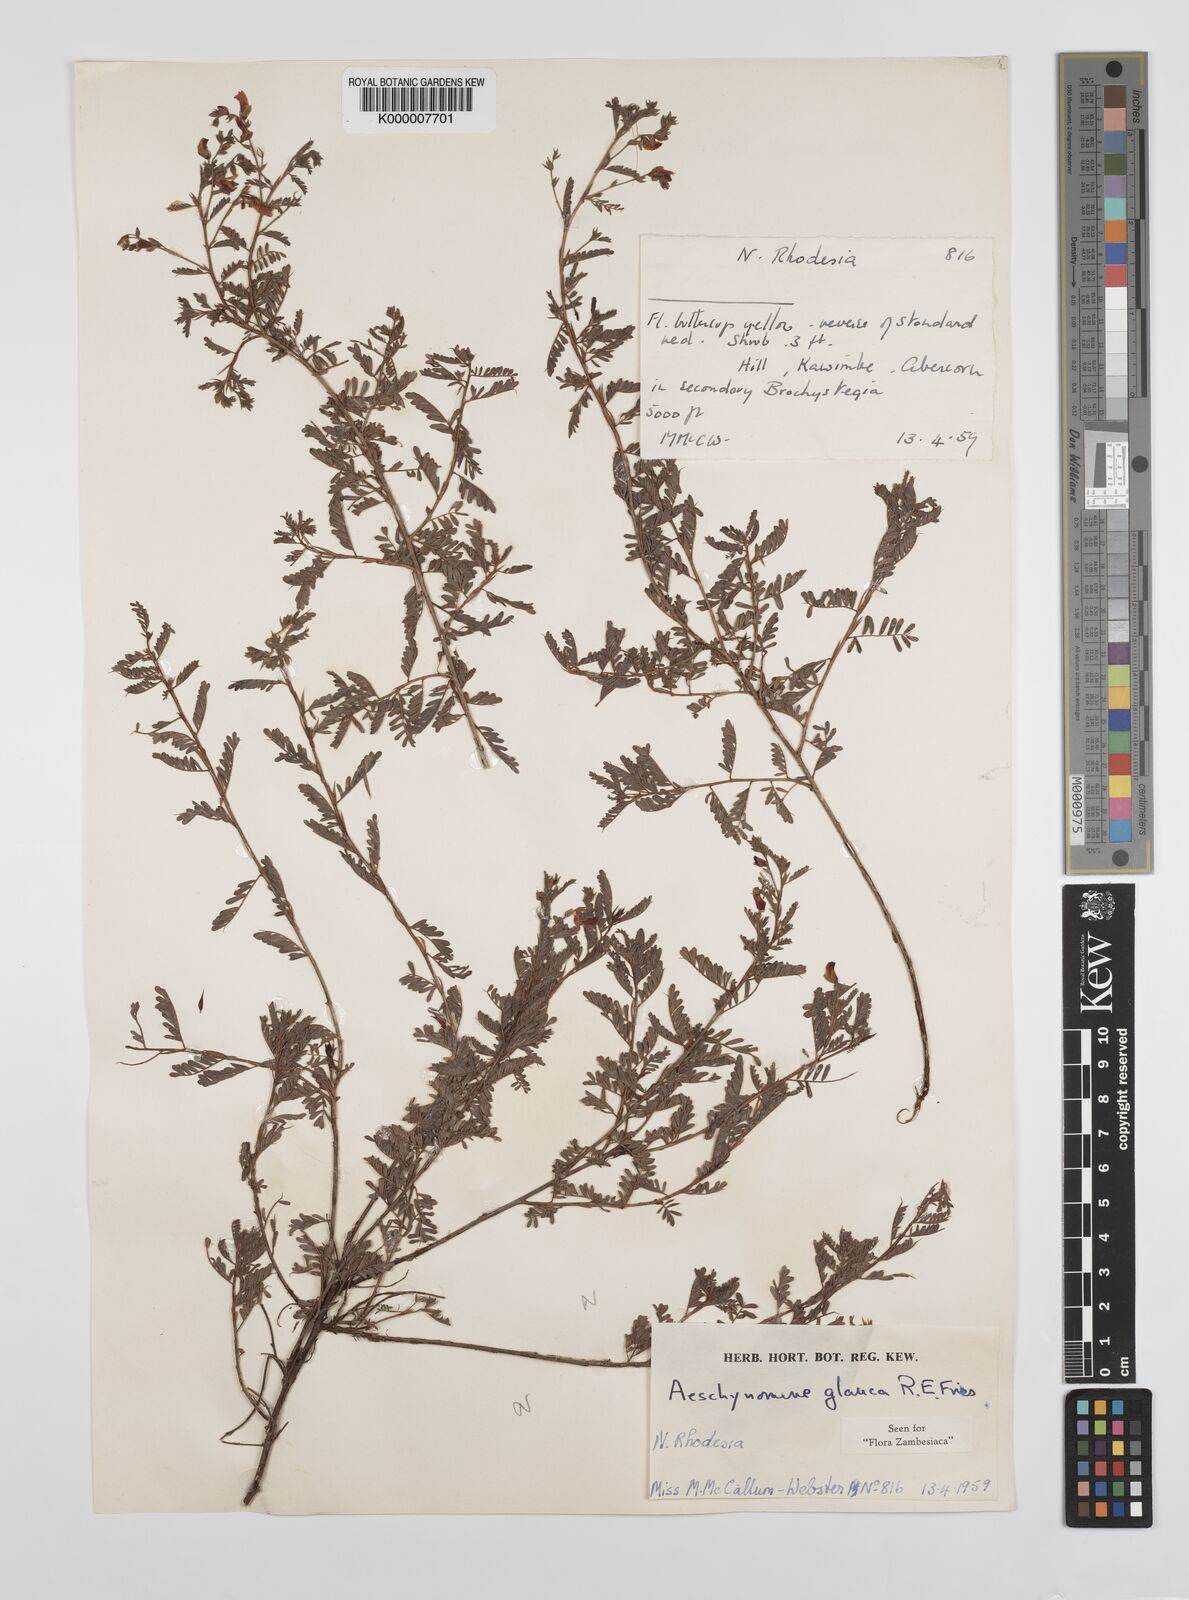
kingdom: Plantae
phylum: Tracheophyta
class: Magnoliopsida
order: Fabales
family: Fabaceae
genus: Aeschynomene
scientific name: Aeschynomene glauca
